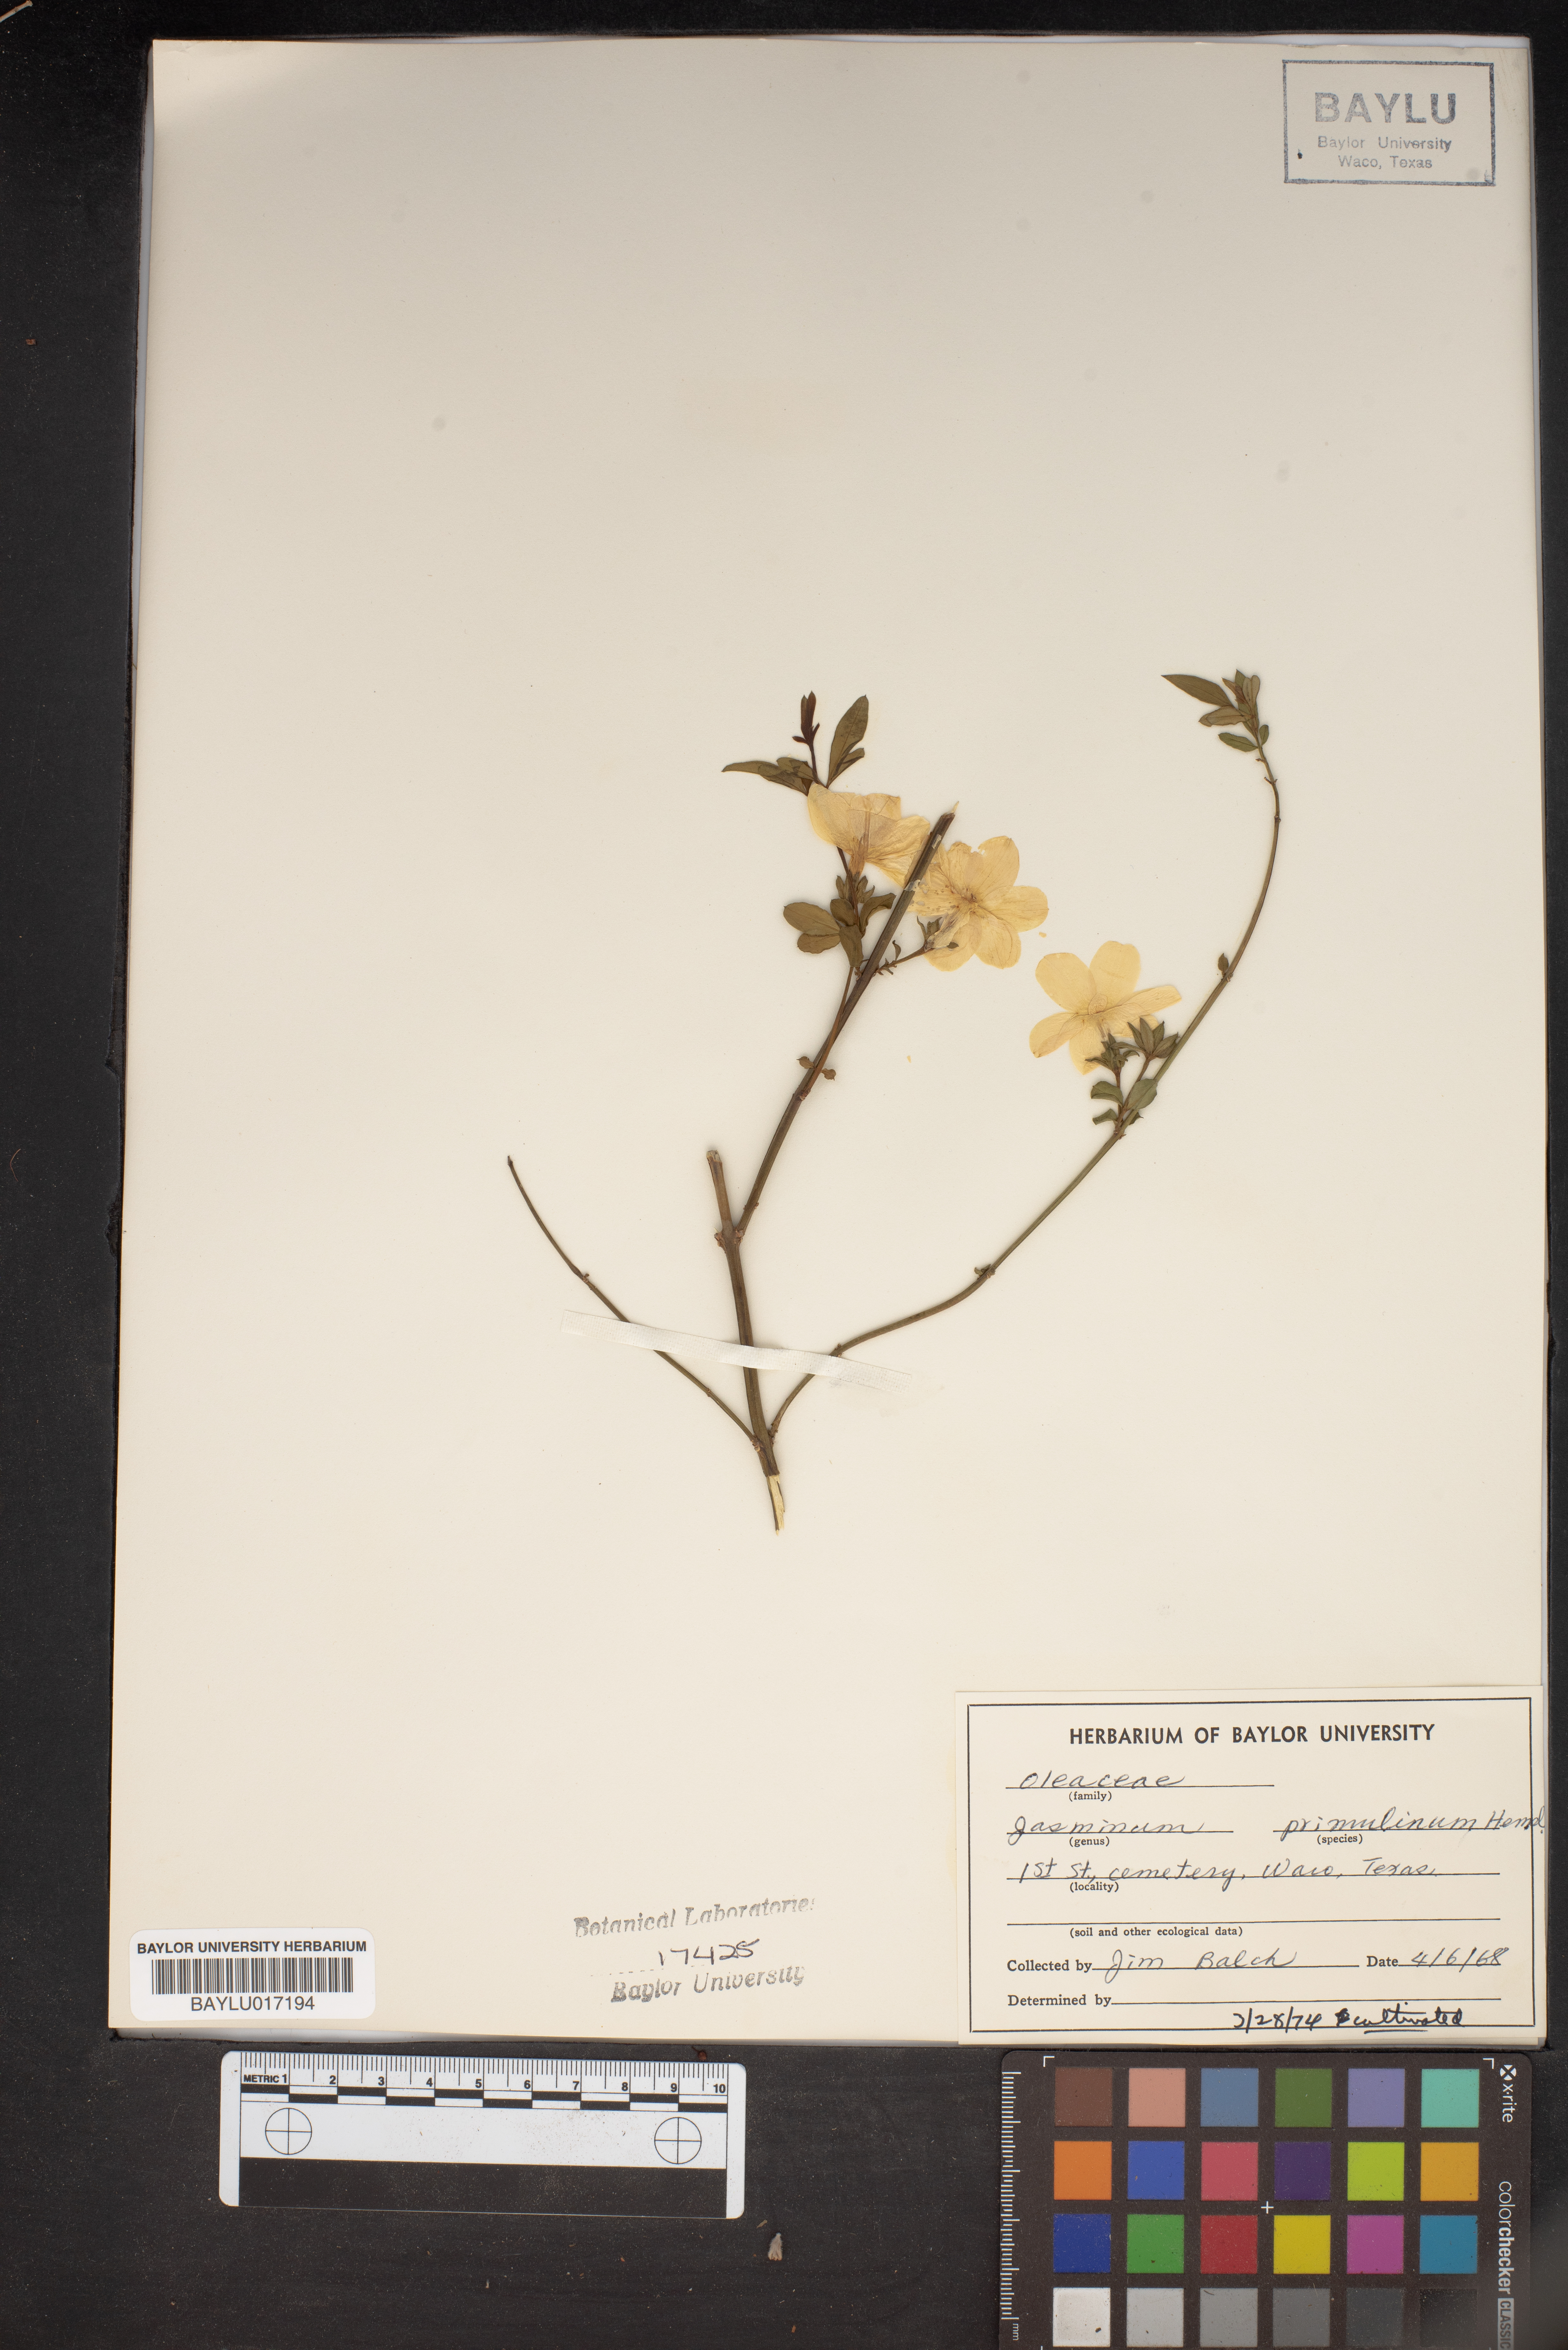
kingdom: Plantae
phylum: Tracheophyta
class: Magnoliopsida
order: Lamiales
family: Oleaceae
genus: Jasminum
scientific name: Jasminum mesnyi
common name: Japanese jasmine
